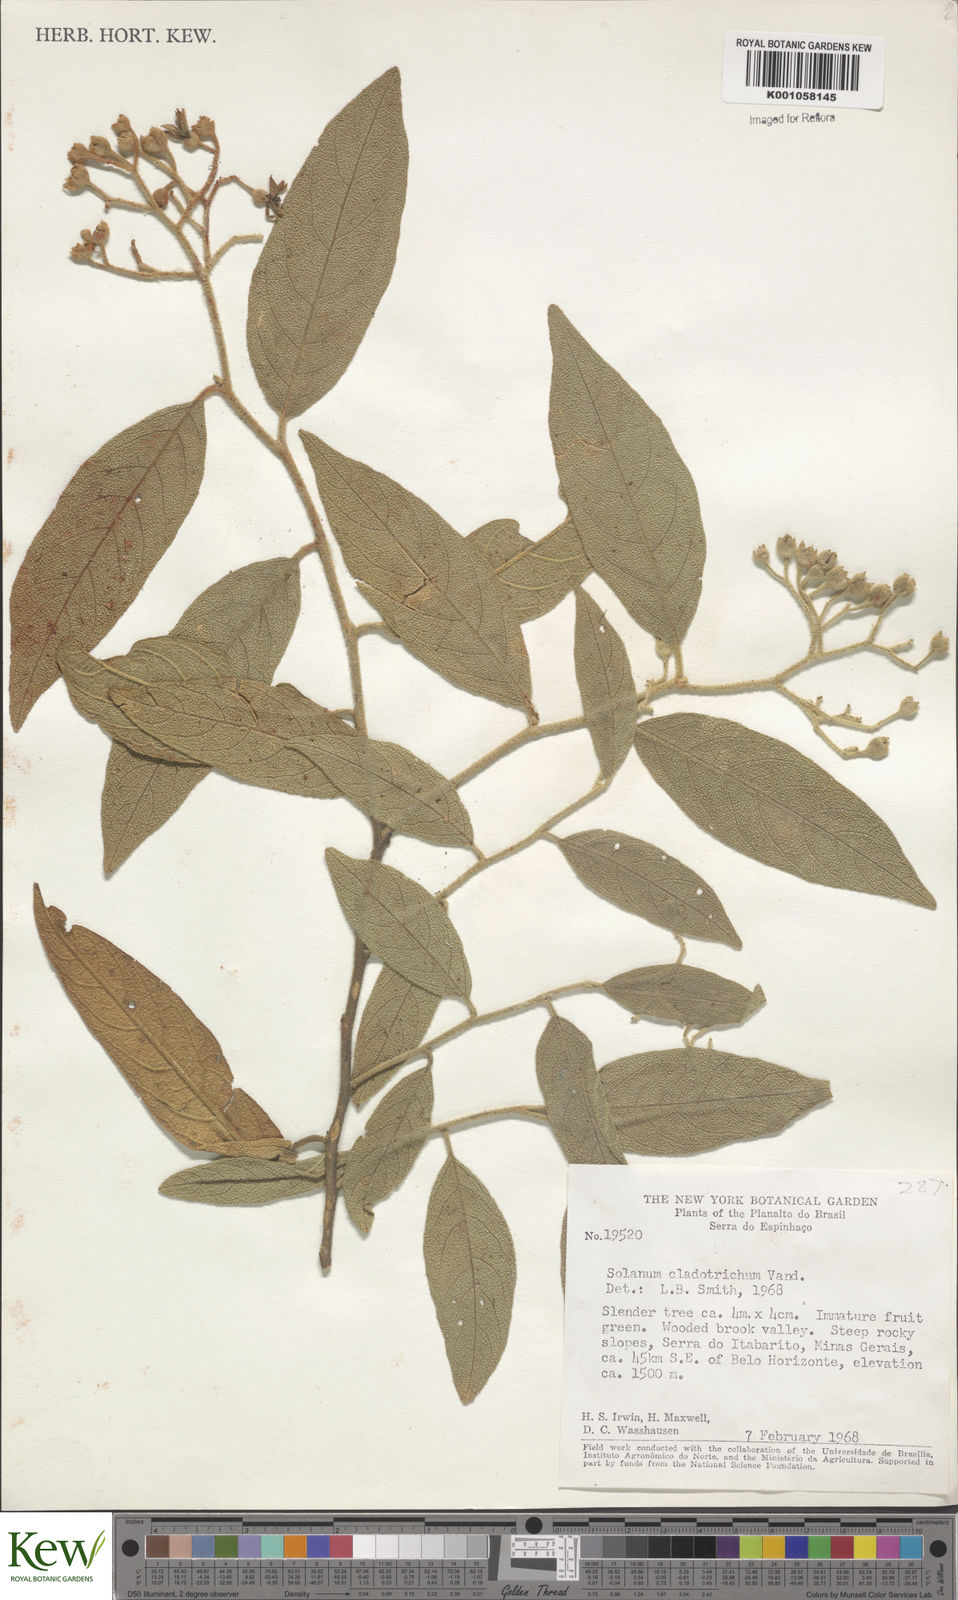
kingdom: Plantae
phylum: Tracheophyta
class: Magnoliopsida
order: Solanales
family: Solanaceae
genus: Solanum
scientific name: Solanum jussiaei
